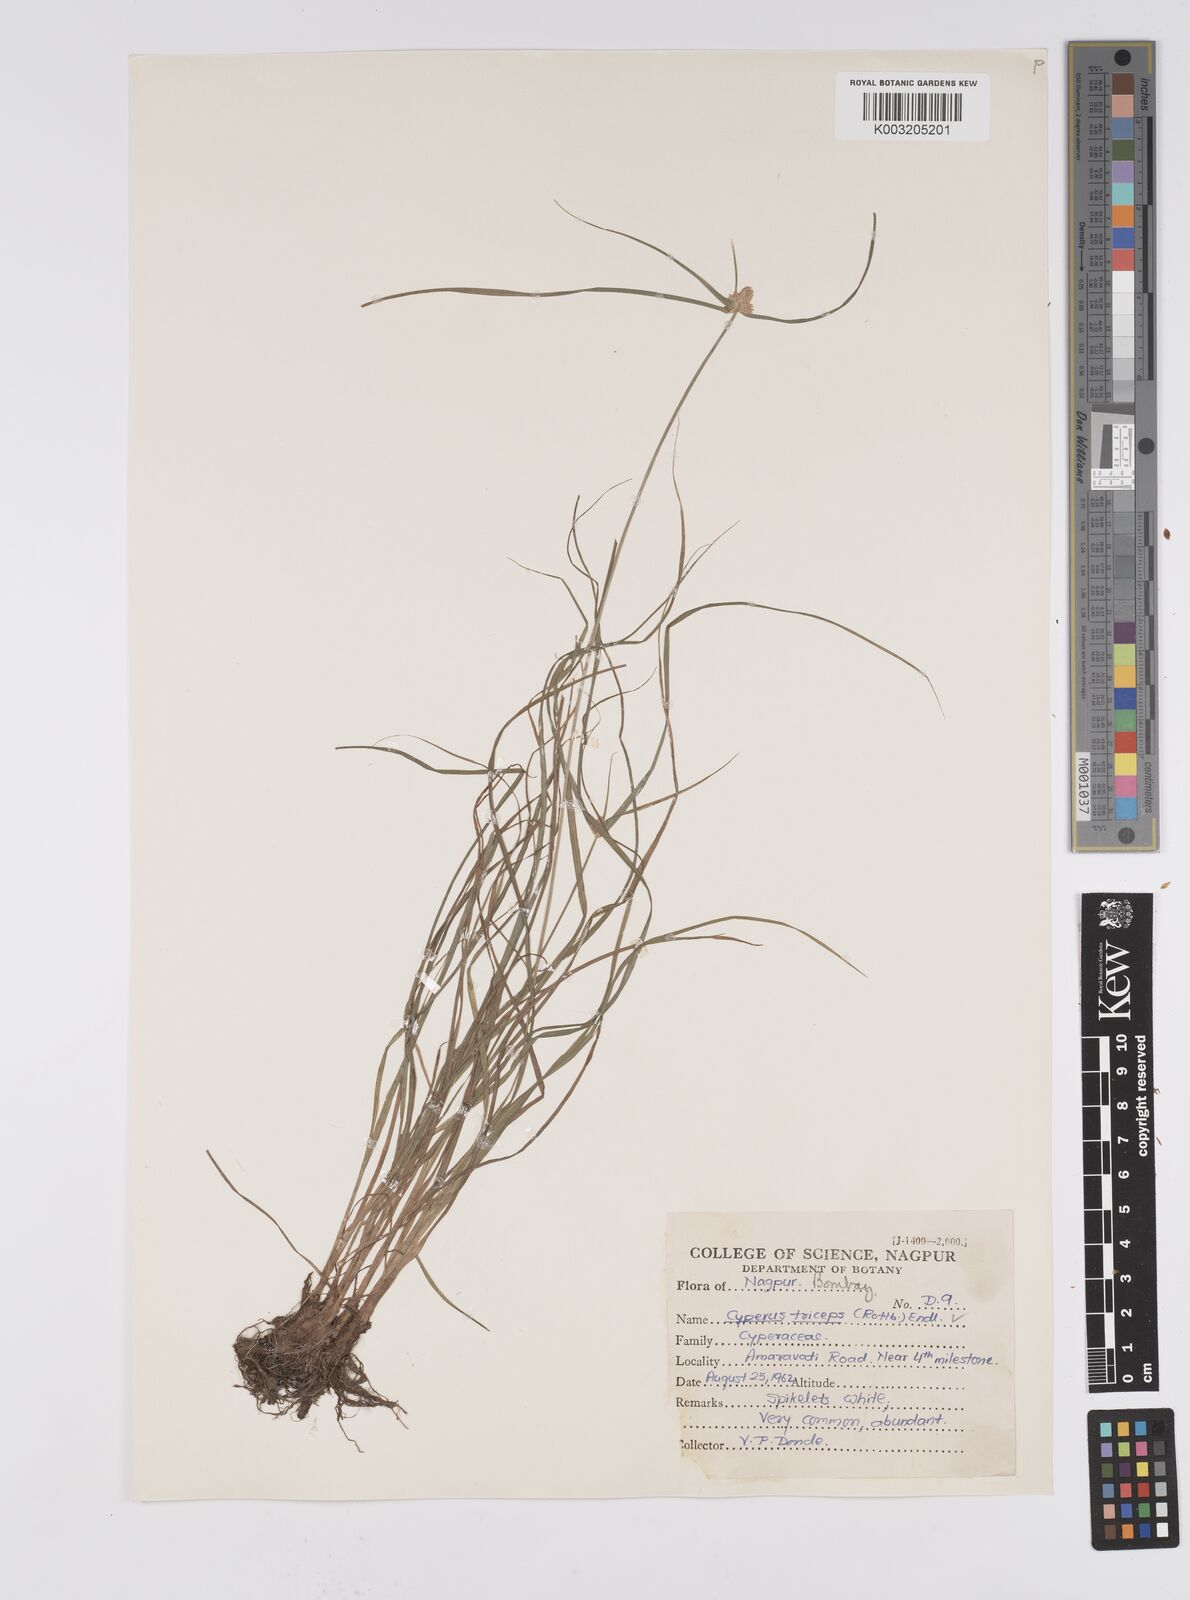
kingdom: Plantae
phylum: Tracheophyta
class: Liliopsida
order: Poales
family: Cyperaceae
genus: Cyperus
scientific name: Cyperus
